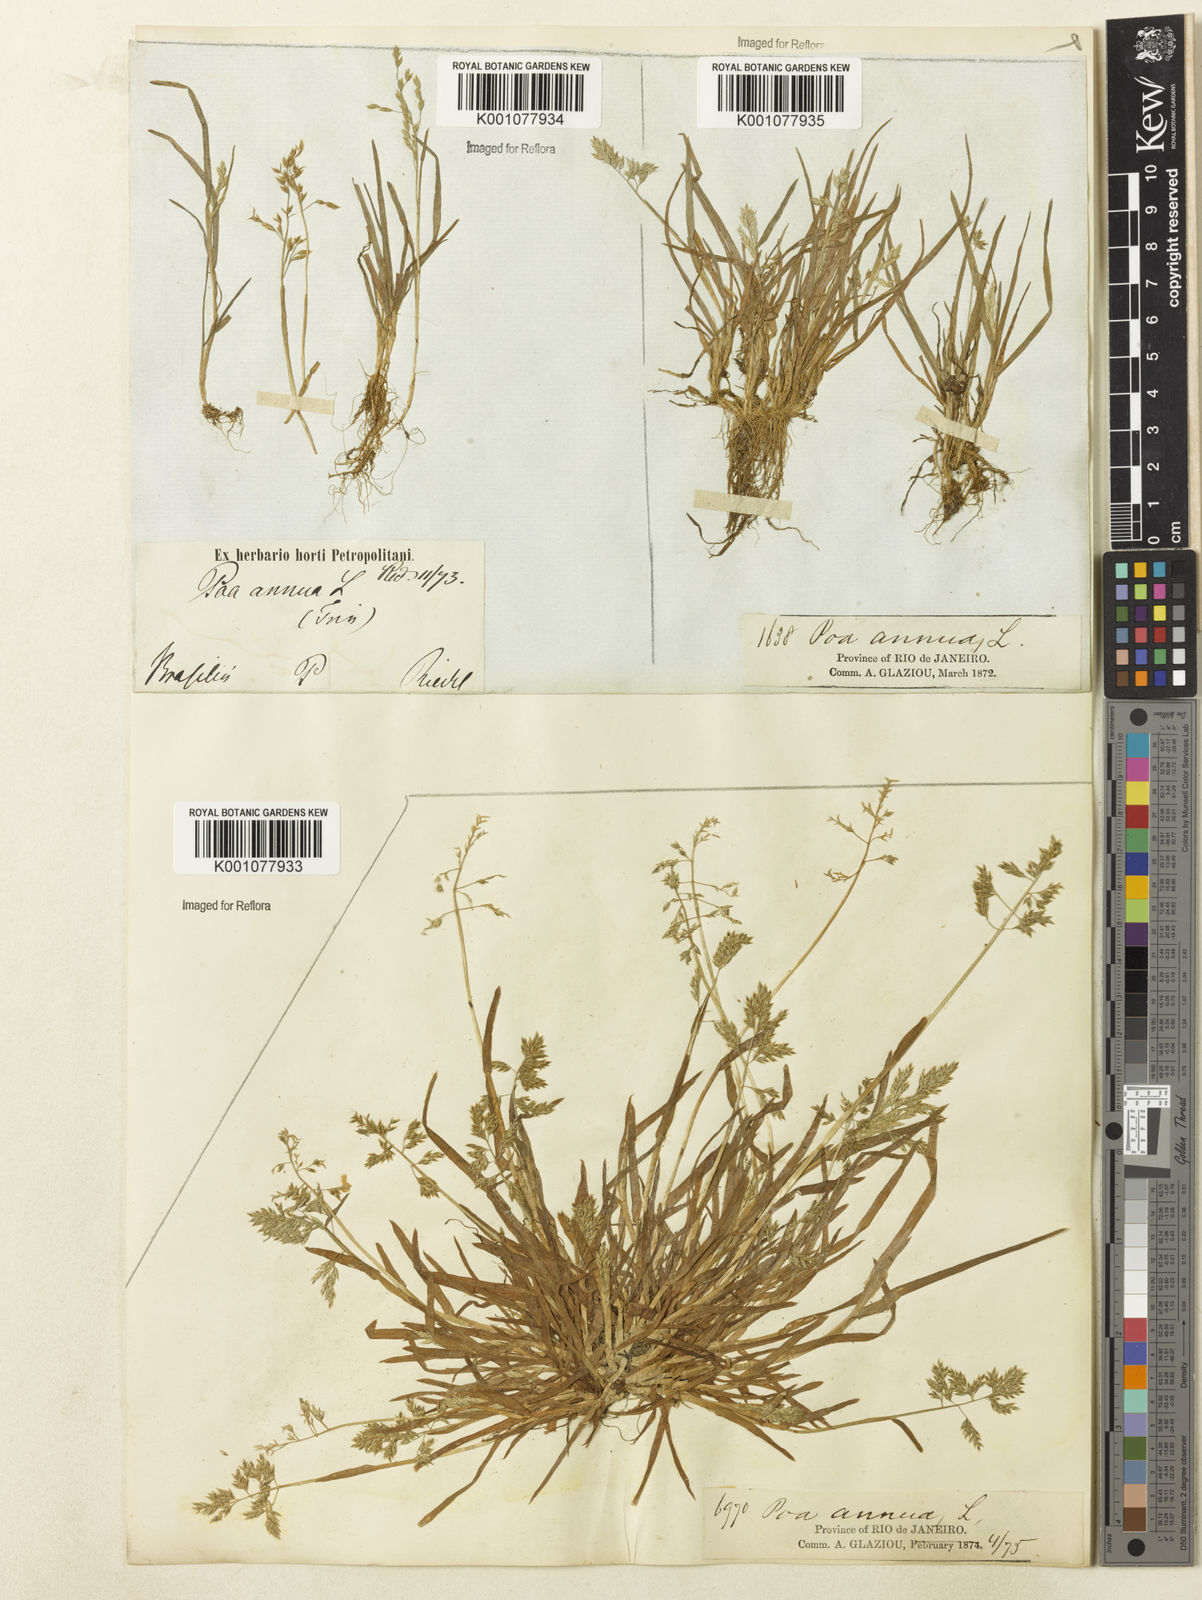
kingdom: Plantae
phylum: Tracheophyta
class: Liliopsida
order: Poales
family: Poaceae
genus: Poa
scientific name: Poa annua
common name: Annual bluegrass
